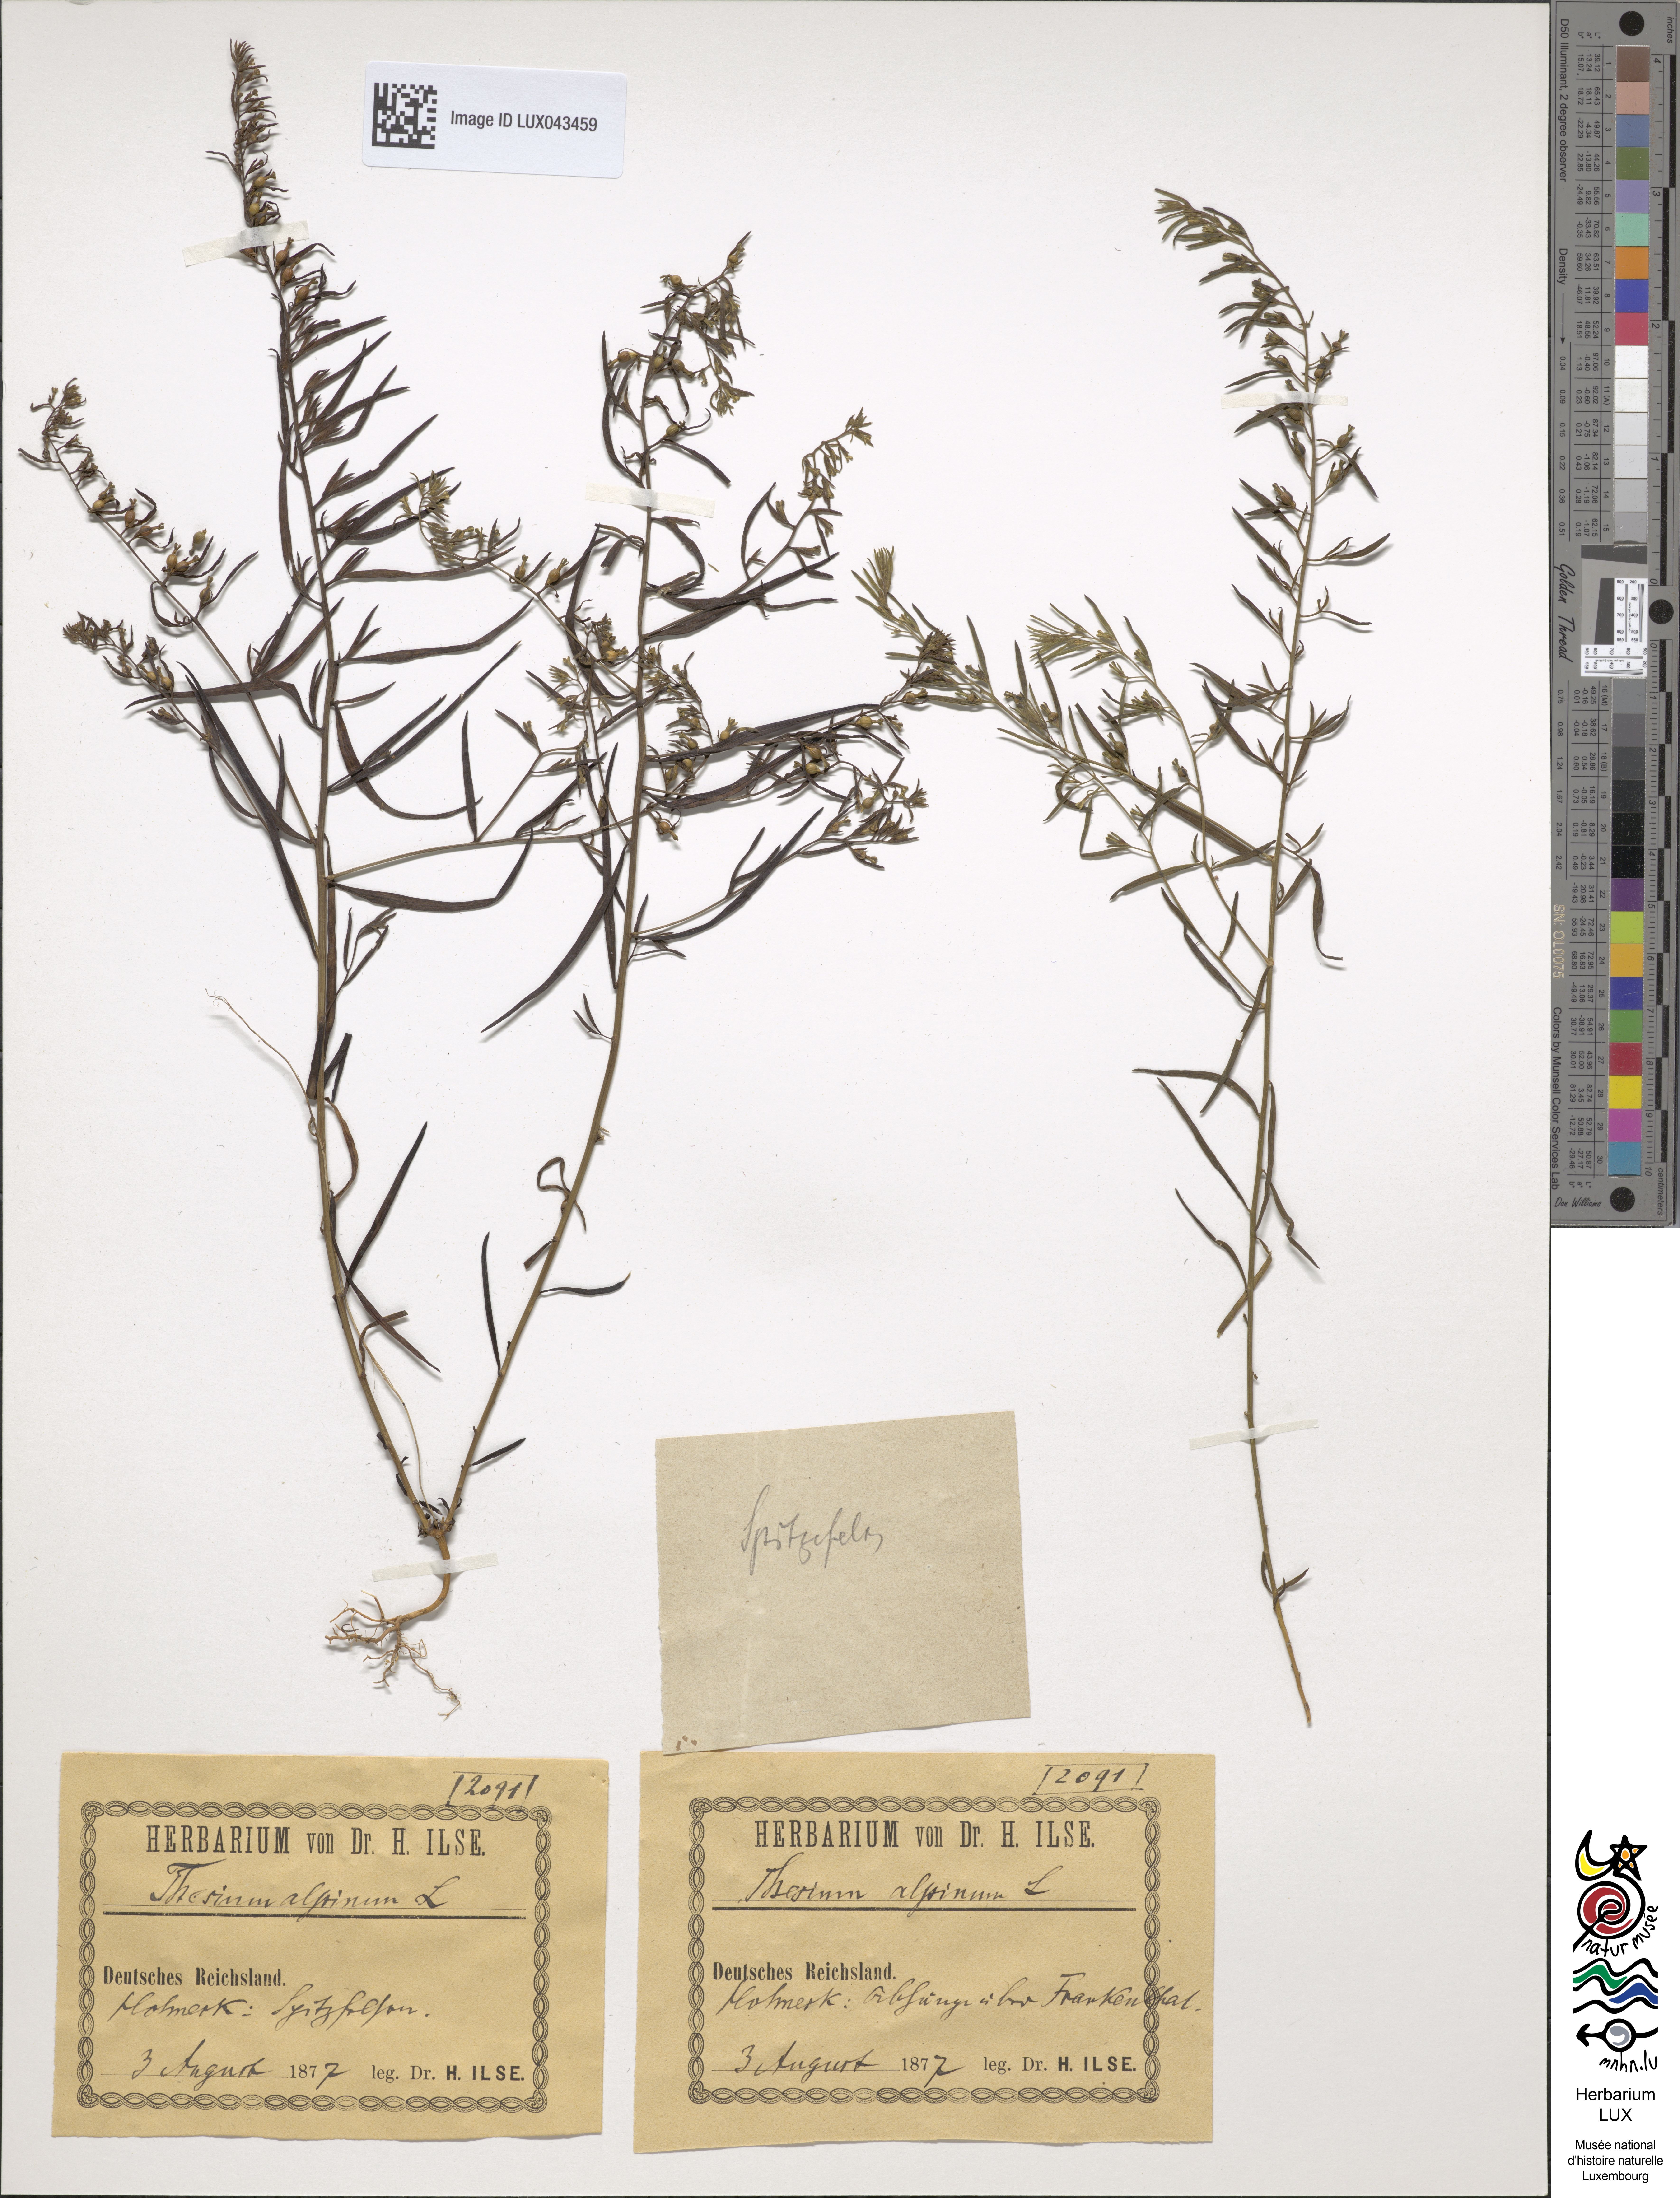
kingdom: Plantae
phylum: Tracheophyta
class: Magnoliopsida
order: Santalales
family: Thesiaceae
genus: Thesium
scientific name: Thesium alpinum
